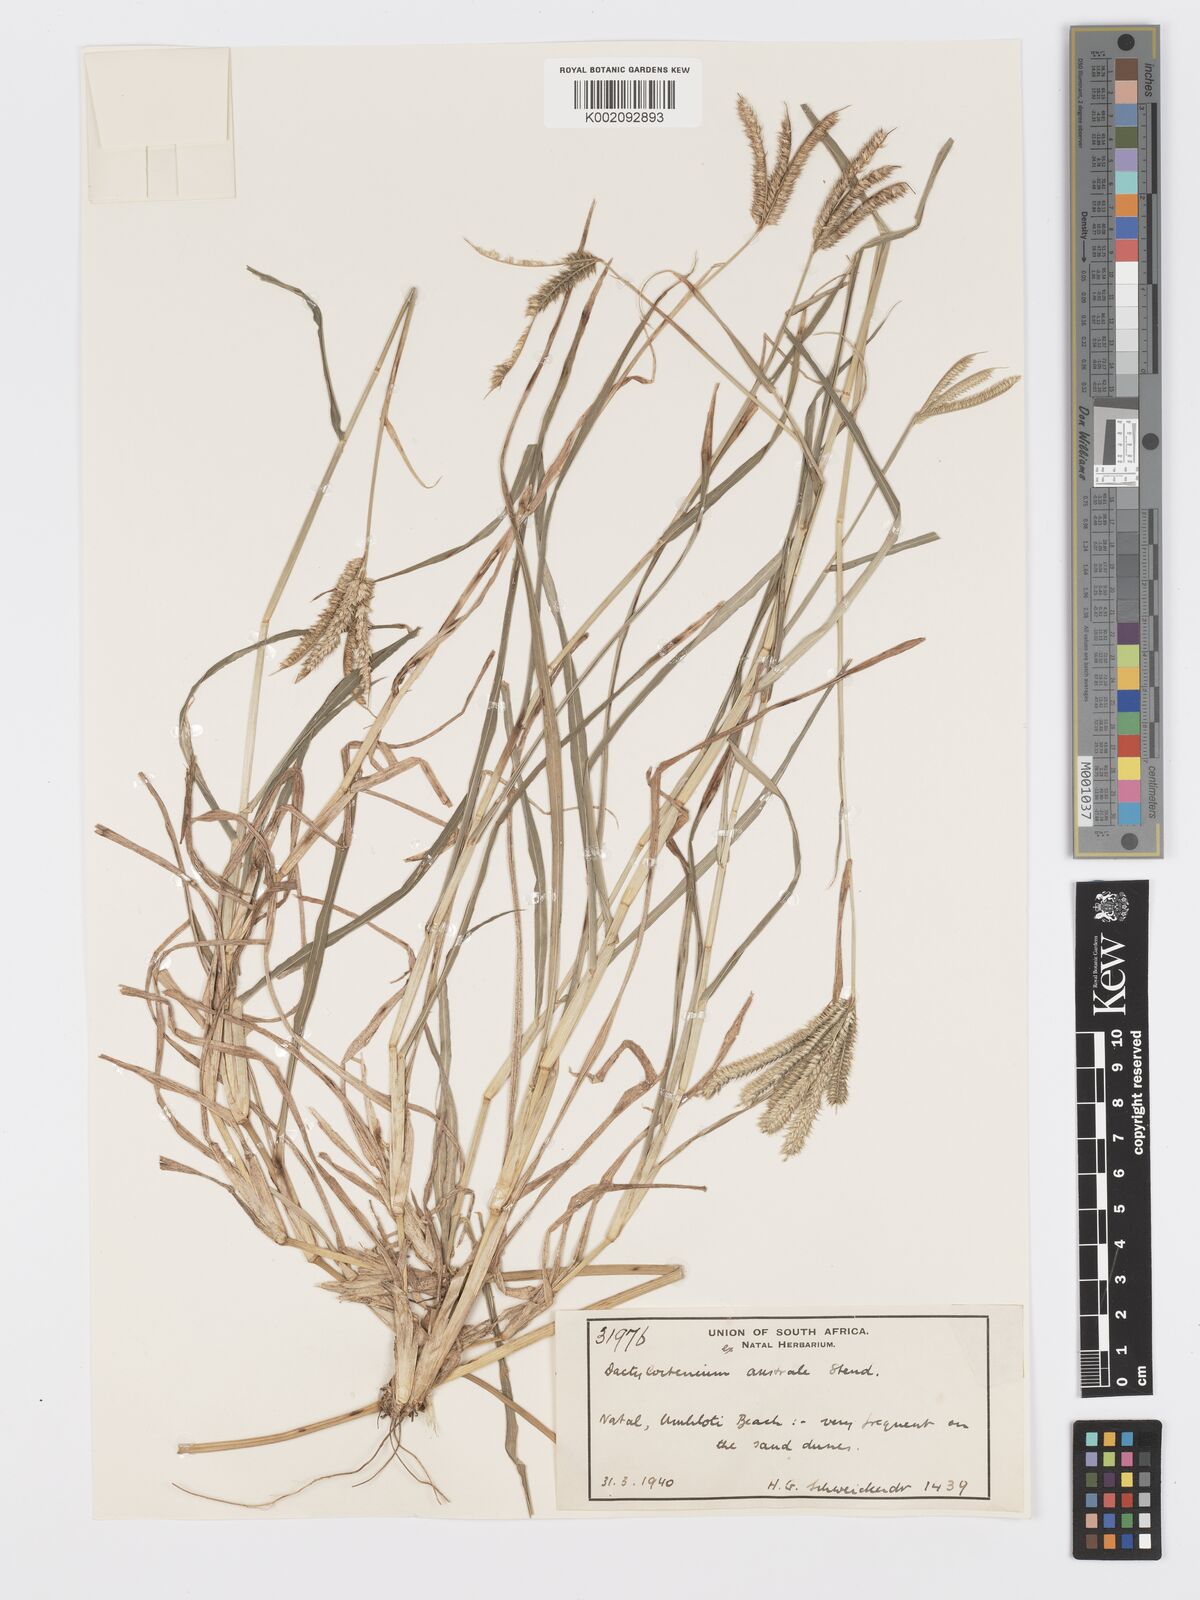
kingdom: Plantae
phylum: Tracheophyta
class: Liliopsida
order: Poales
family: Poaceae
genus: Dactyloctenium
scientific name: Dactyloctenium australe
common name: Durban grass
